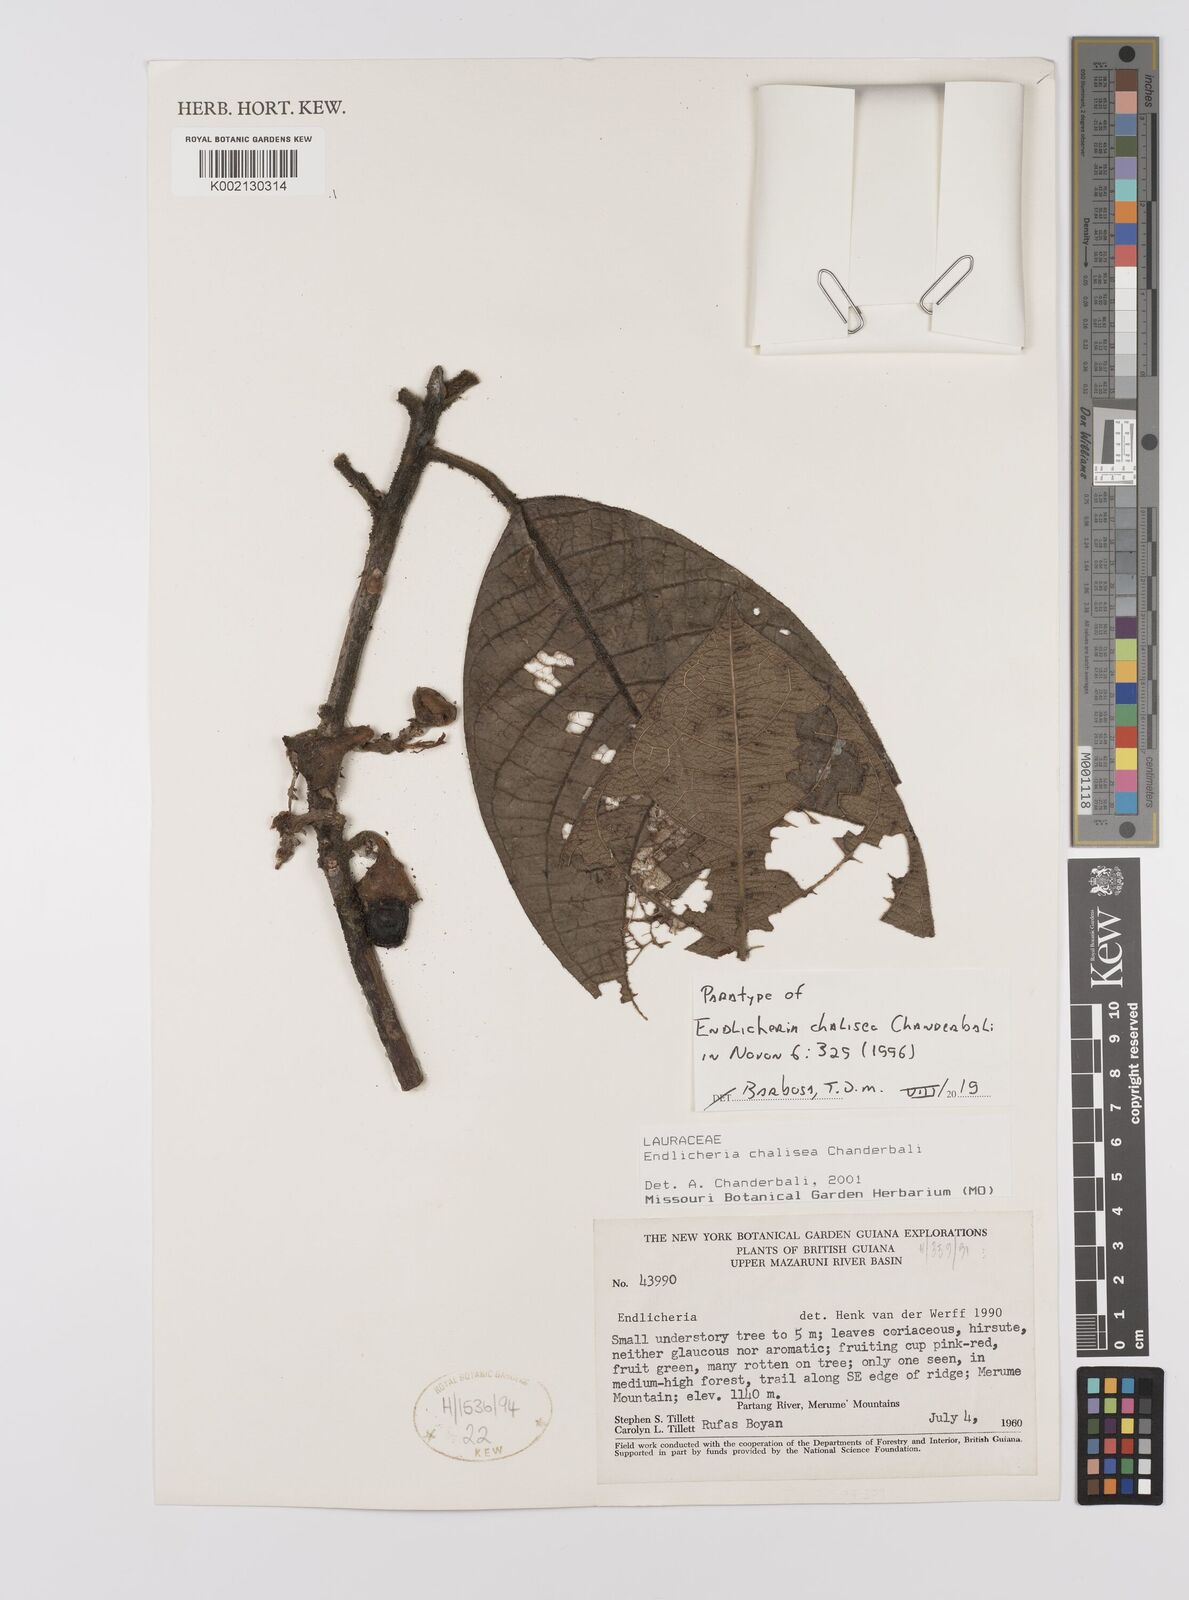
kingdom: Plantae
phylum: Tracheophyta
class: Magnoliopsida
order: Laurales
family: Lauraceae
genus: Endlicheria
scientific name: Endlicheria chalisea
